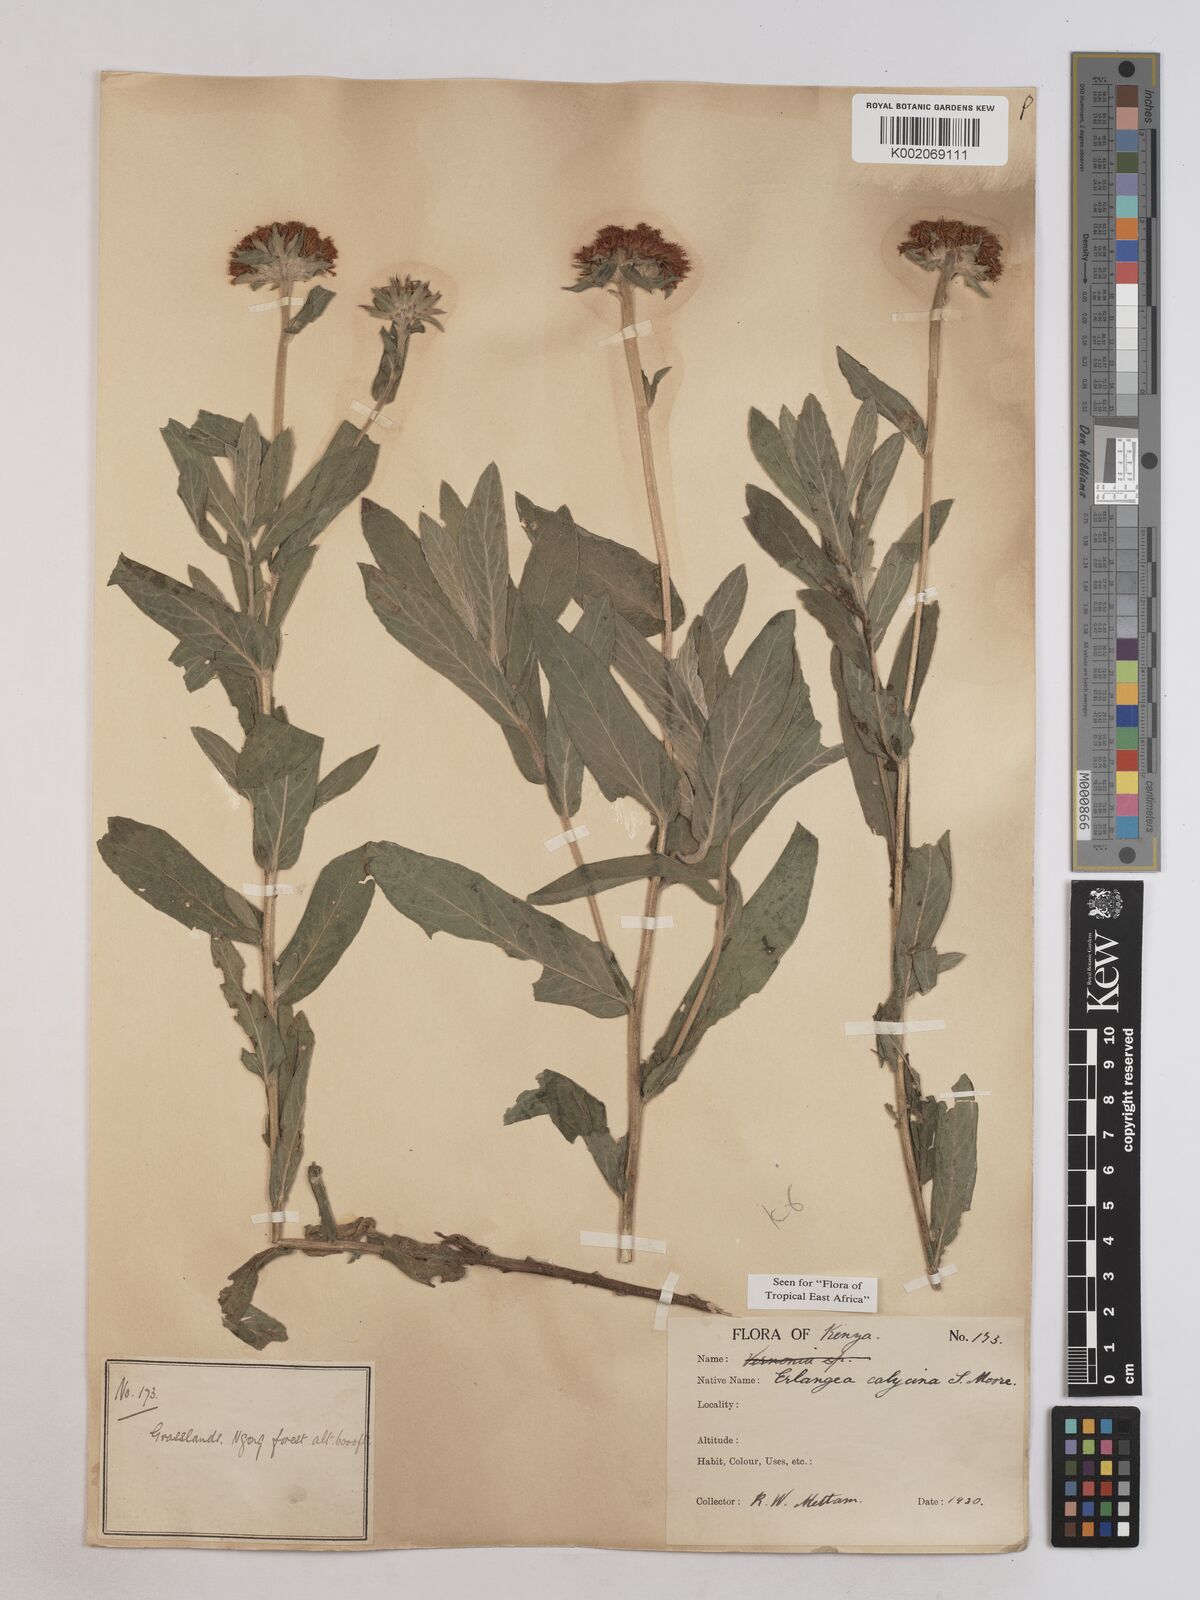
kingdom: Plantae
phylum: Tracheophyta
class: Magnoliopsida
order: Asterales
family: Asteraceae
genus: Erlangea
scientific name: Erlangea calycina
